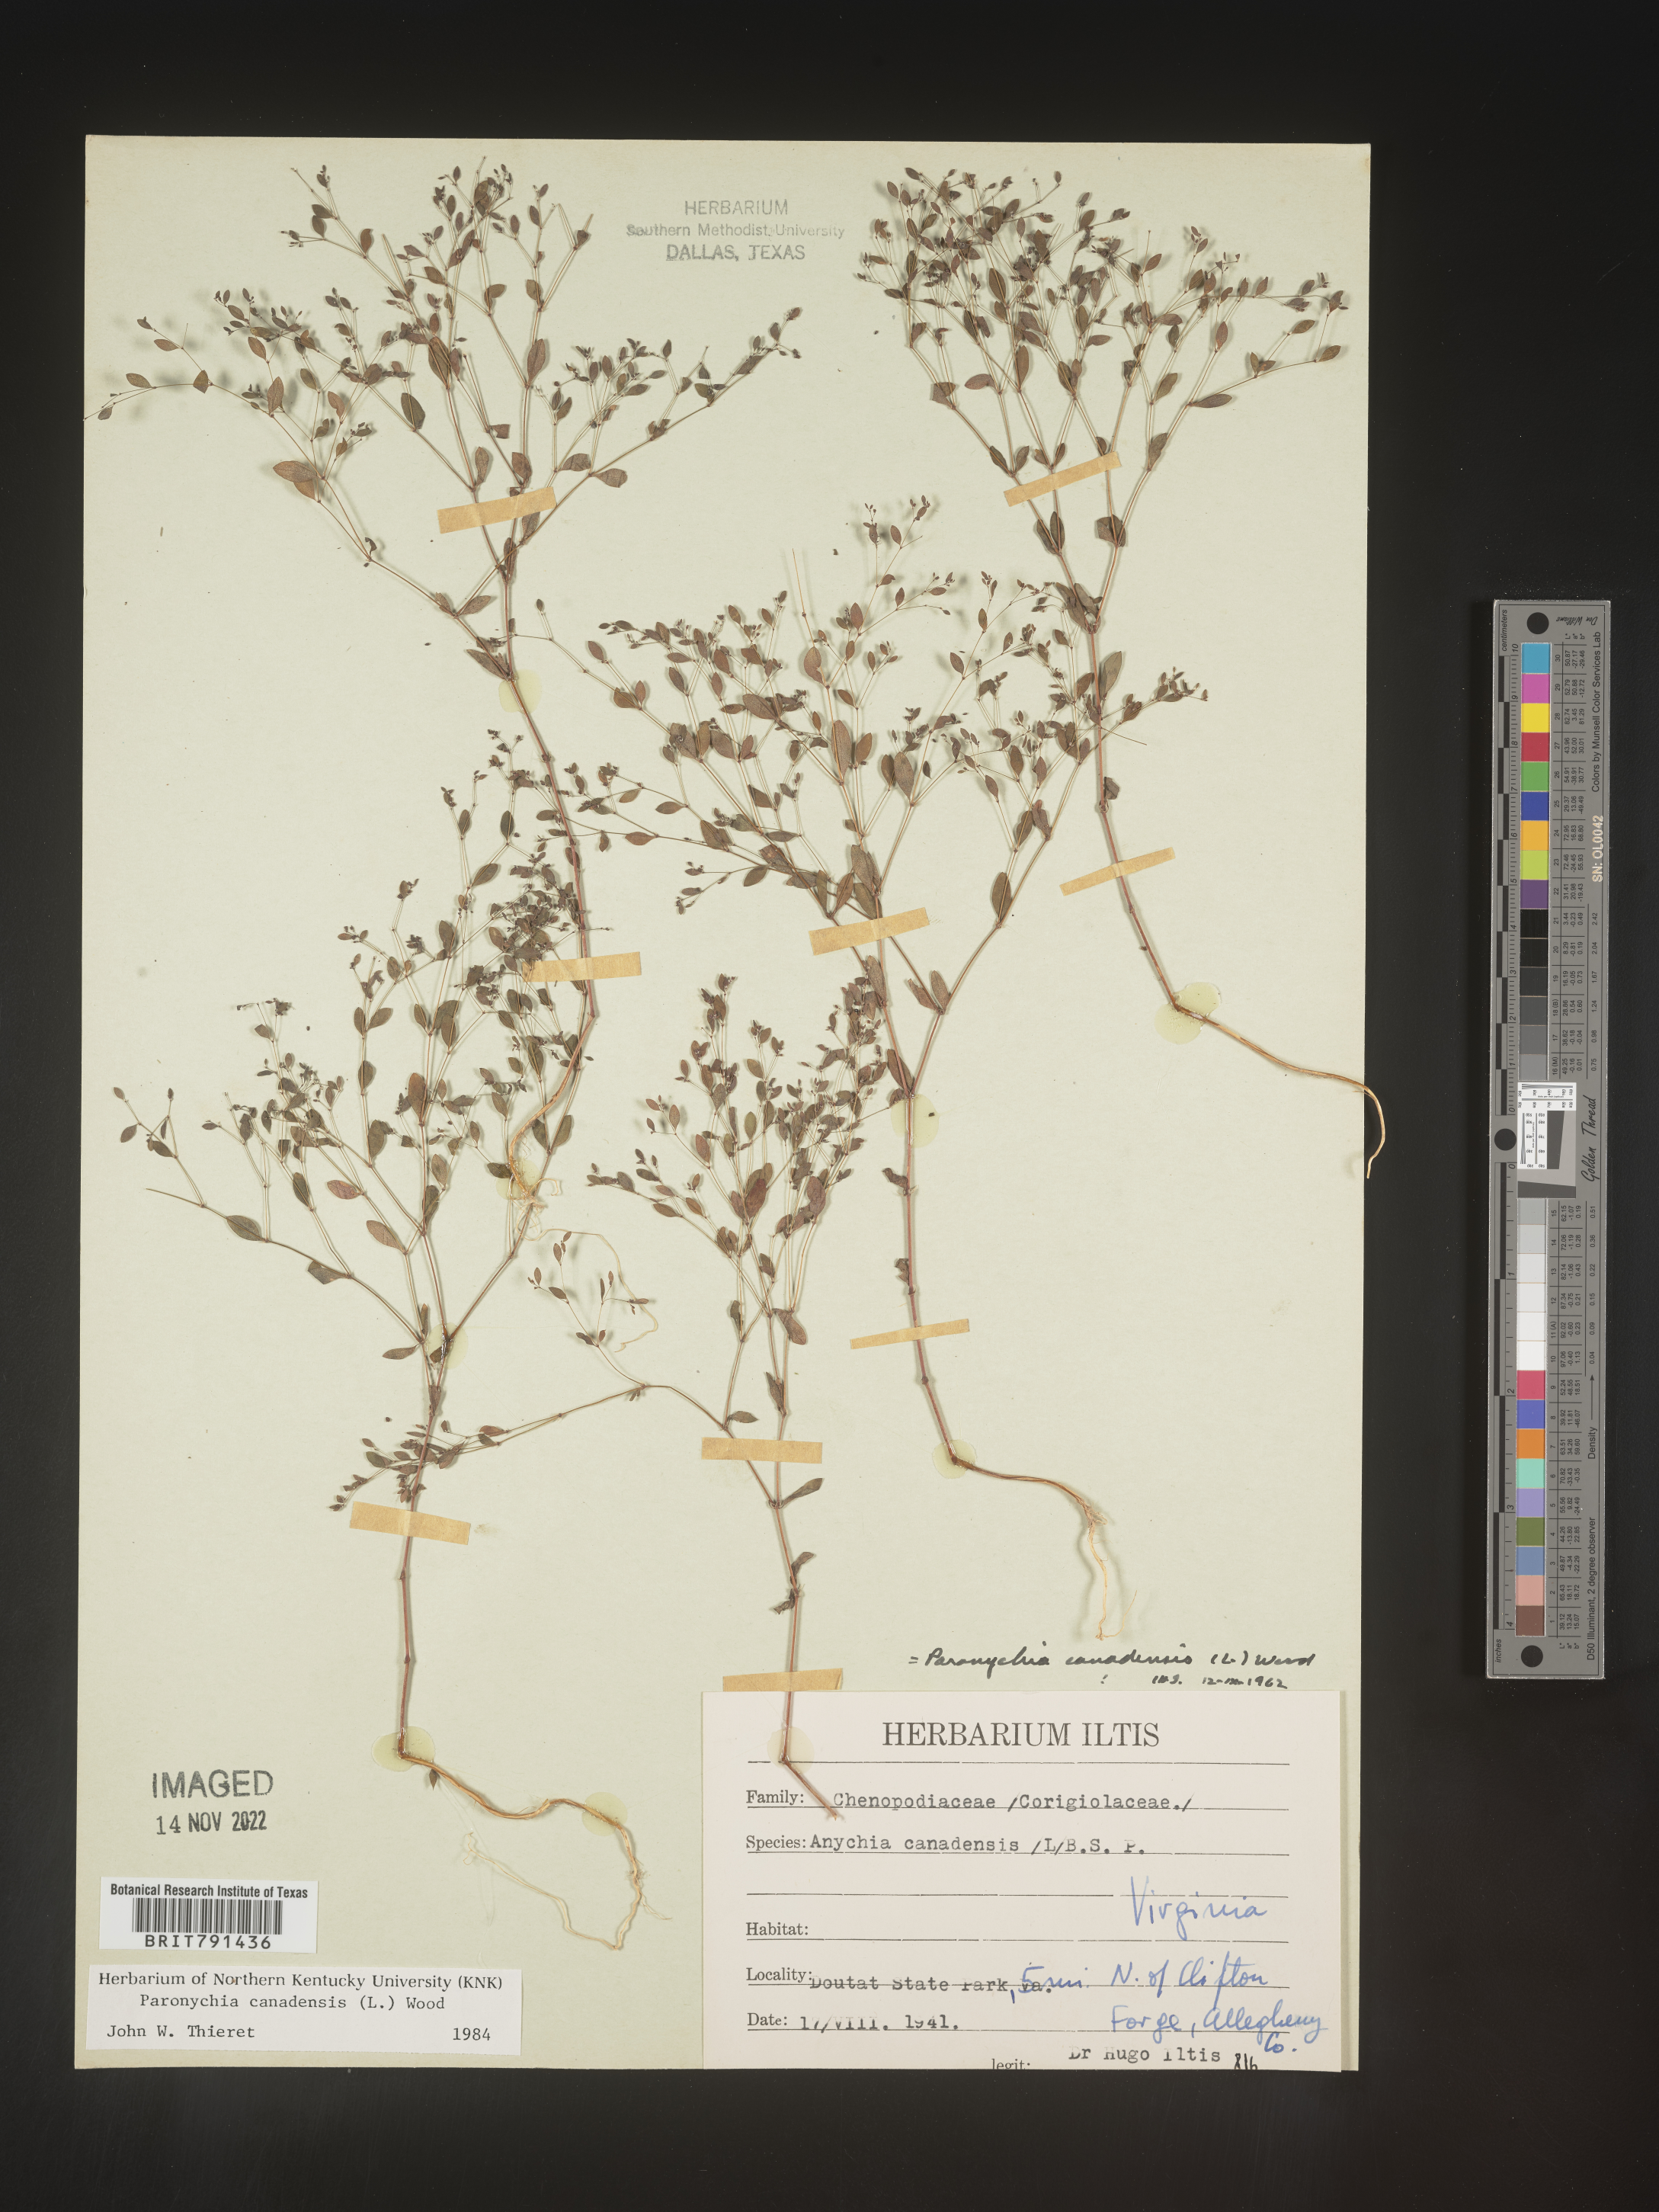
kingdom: Plantae
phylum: Tracheophyta
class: Magnoliopsida
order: Caryophyllales
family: Caryophyllaceae
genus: Paronychia
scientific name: Paronychia canadensis
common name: Canada forked nailwort
